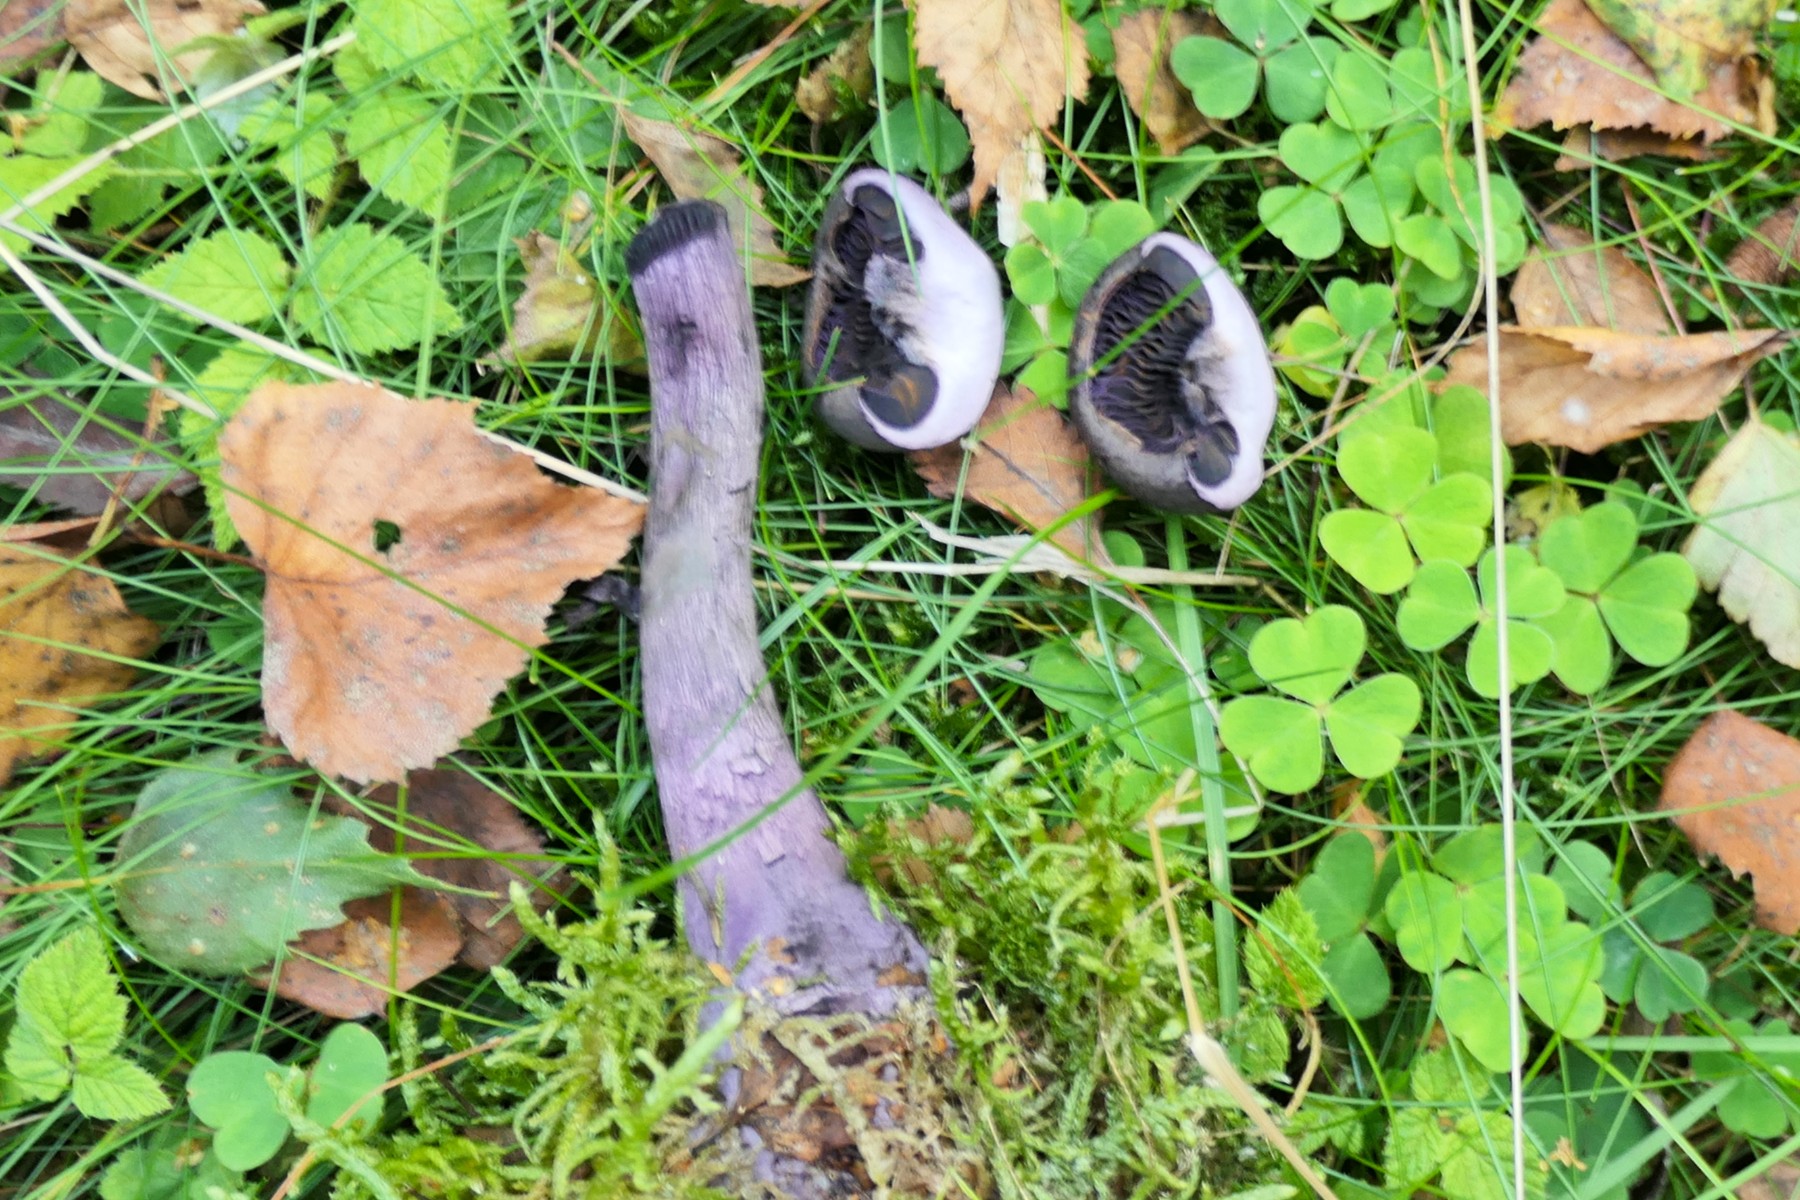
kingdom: Fungi
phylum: Basidiomycota
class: Agaricomycetes
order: Agaricales
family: Cortinariaceae
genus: Cortinarius
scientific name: Cortinarius violaceus
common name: mørkviolet slørhat
